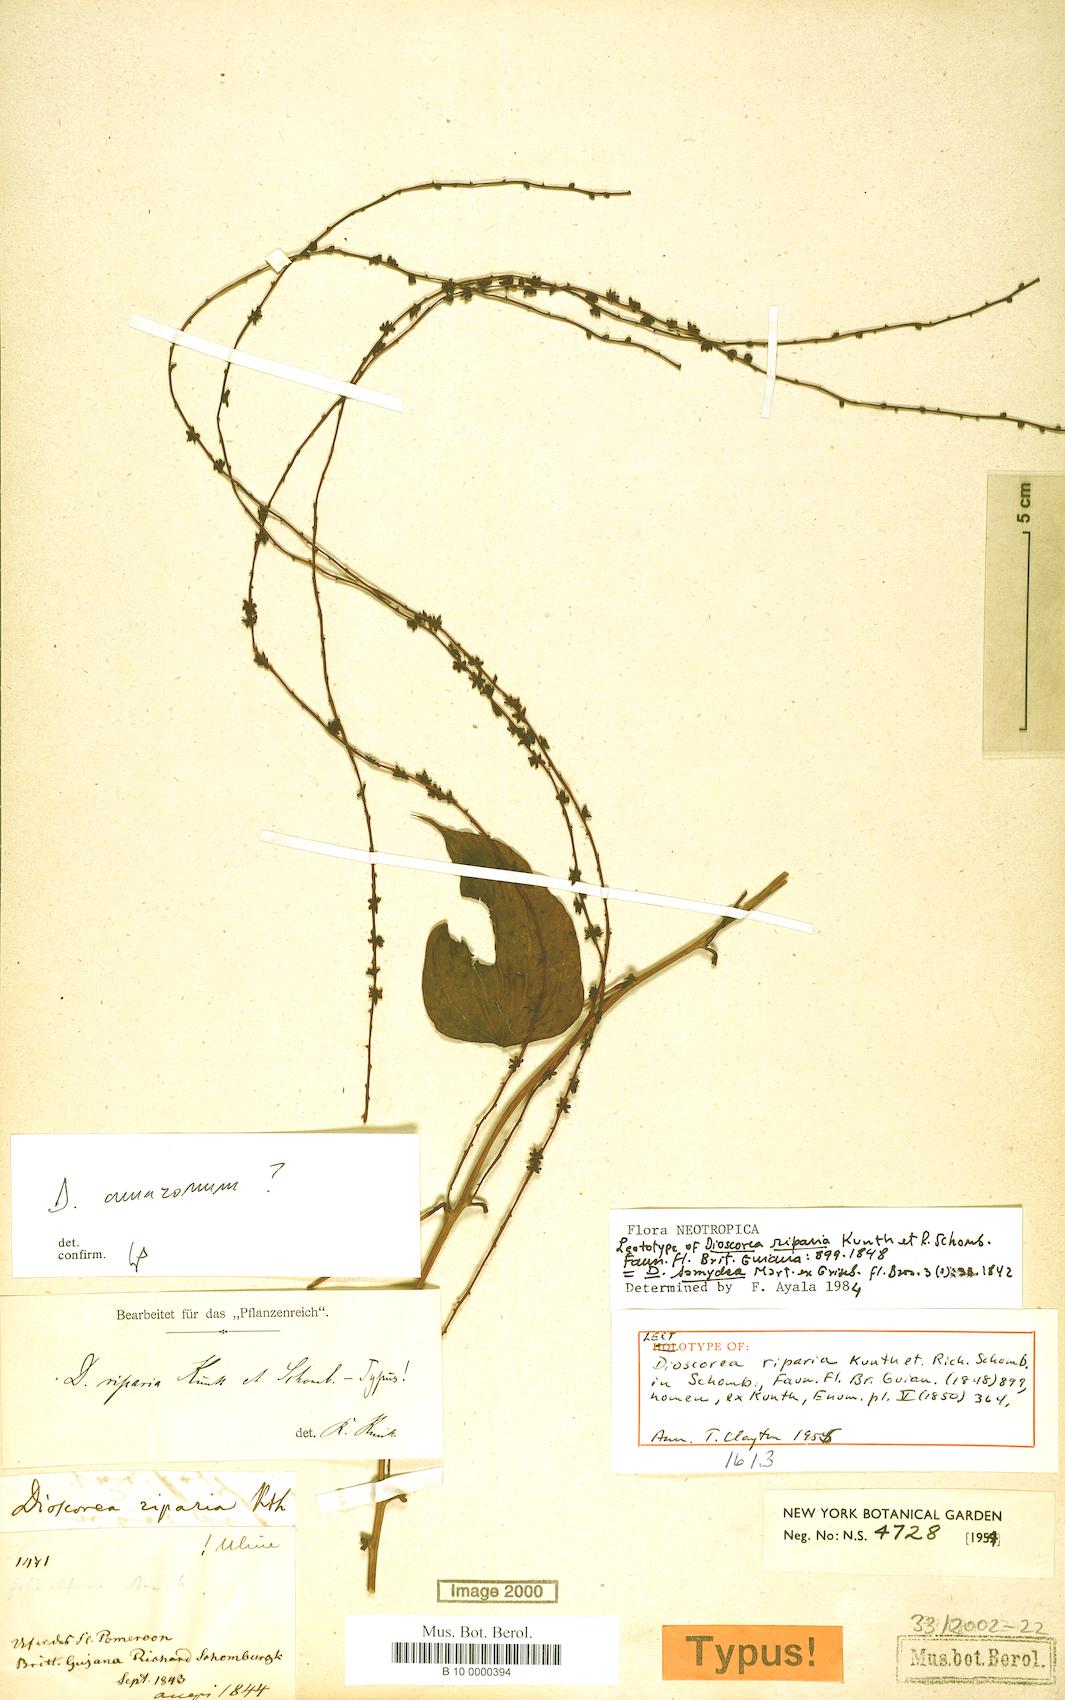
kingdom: Plantae
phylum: Tracheophyta
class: Liliopsida
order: Dioscoreales
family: Dioscoreaceae
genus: Dioscorea
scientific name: Dioscorea chondrocarpa
